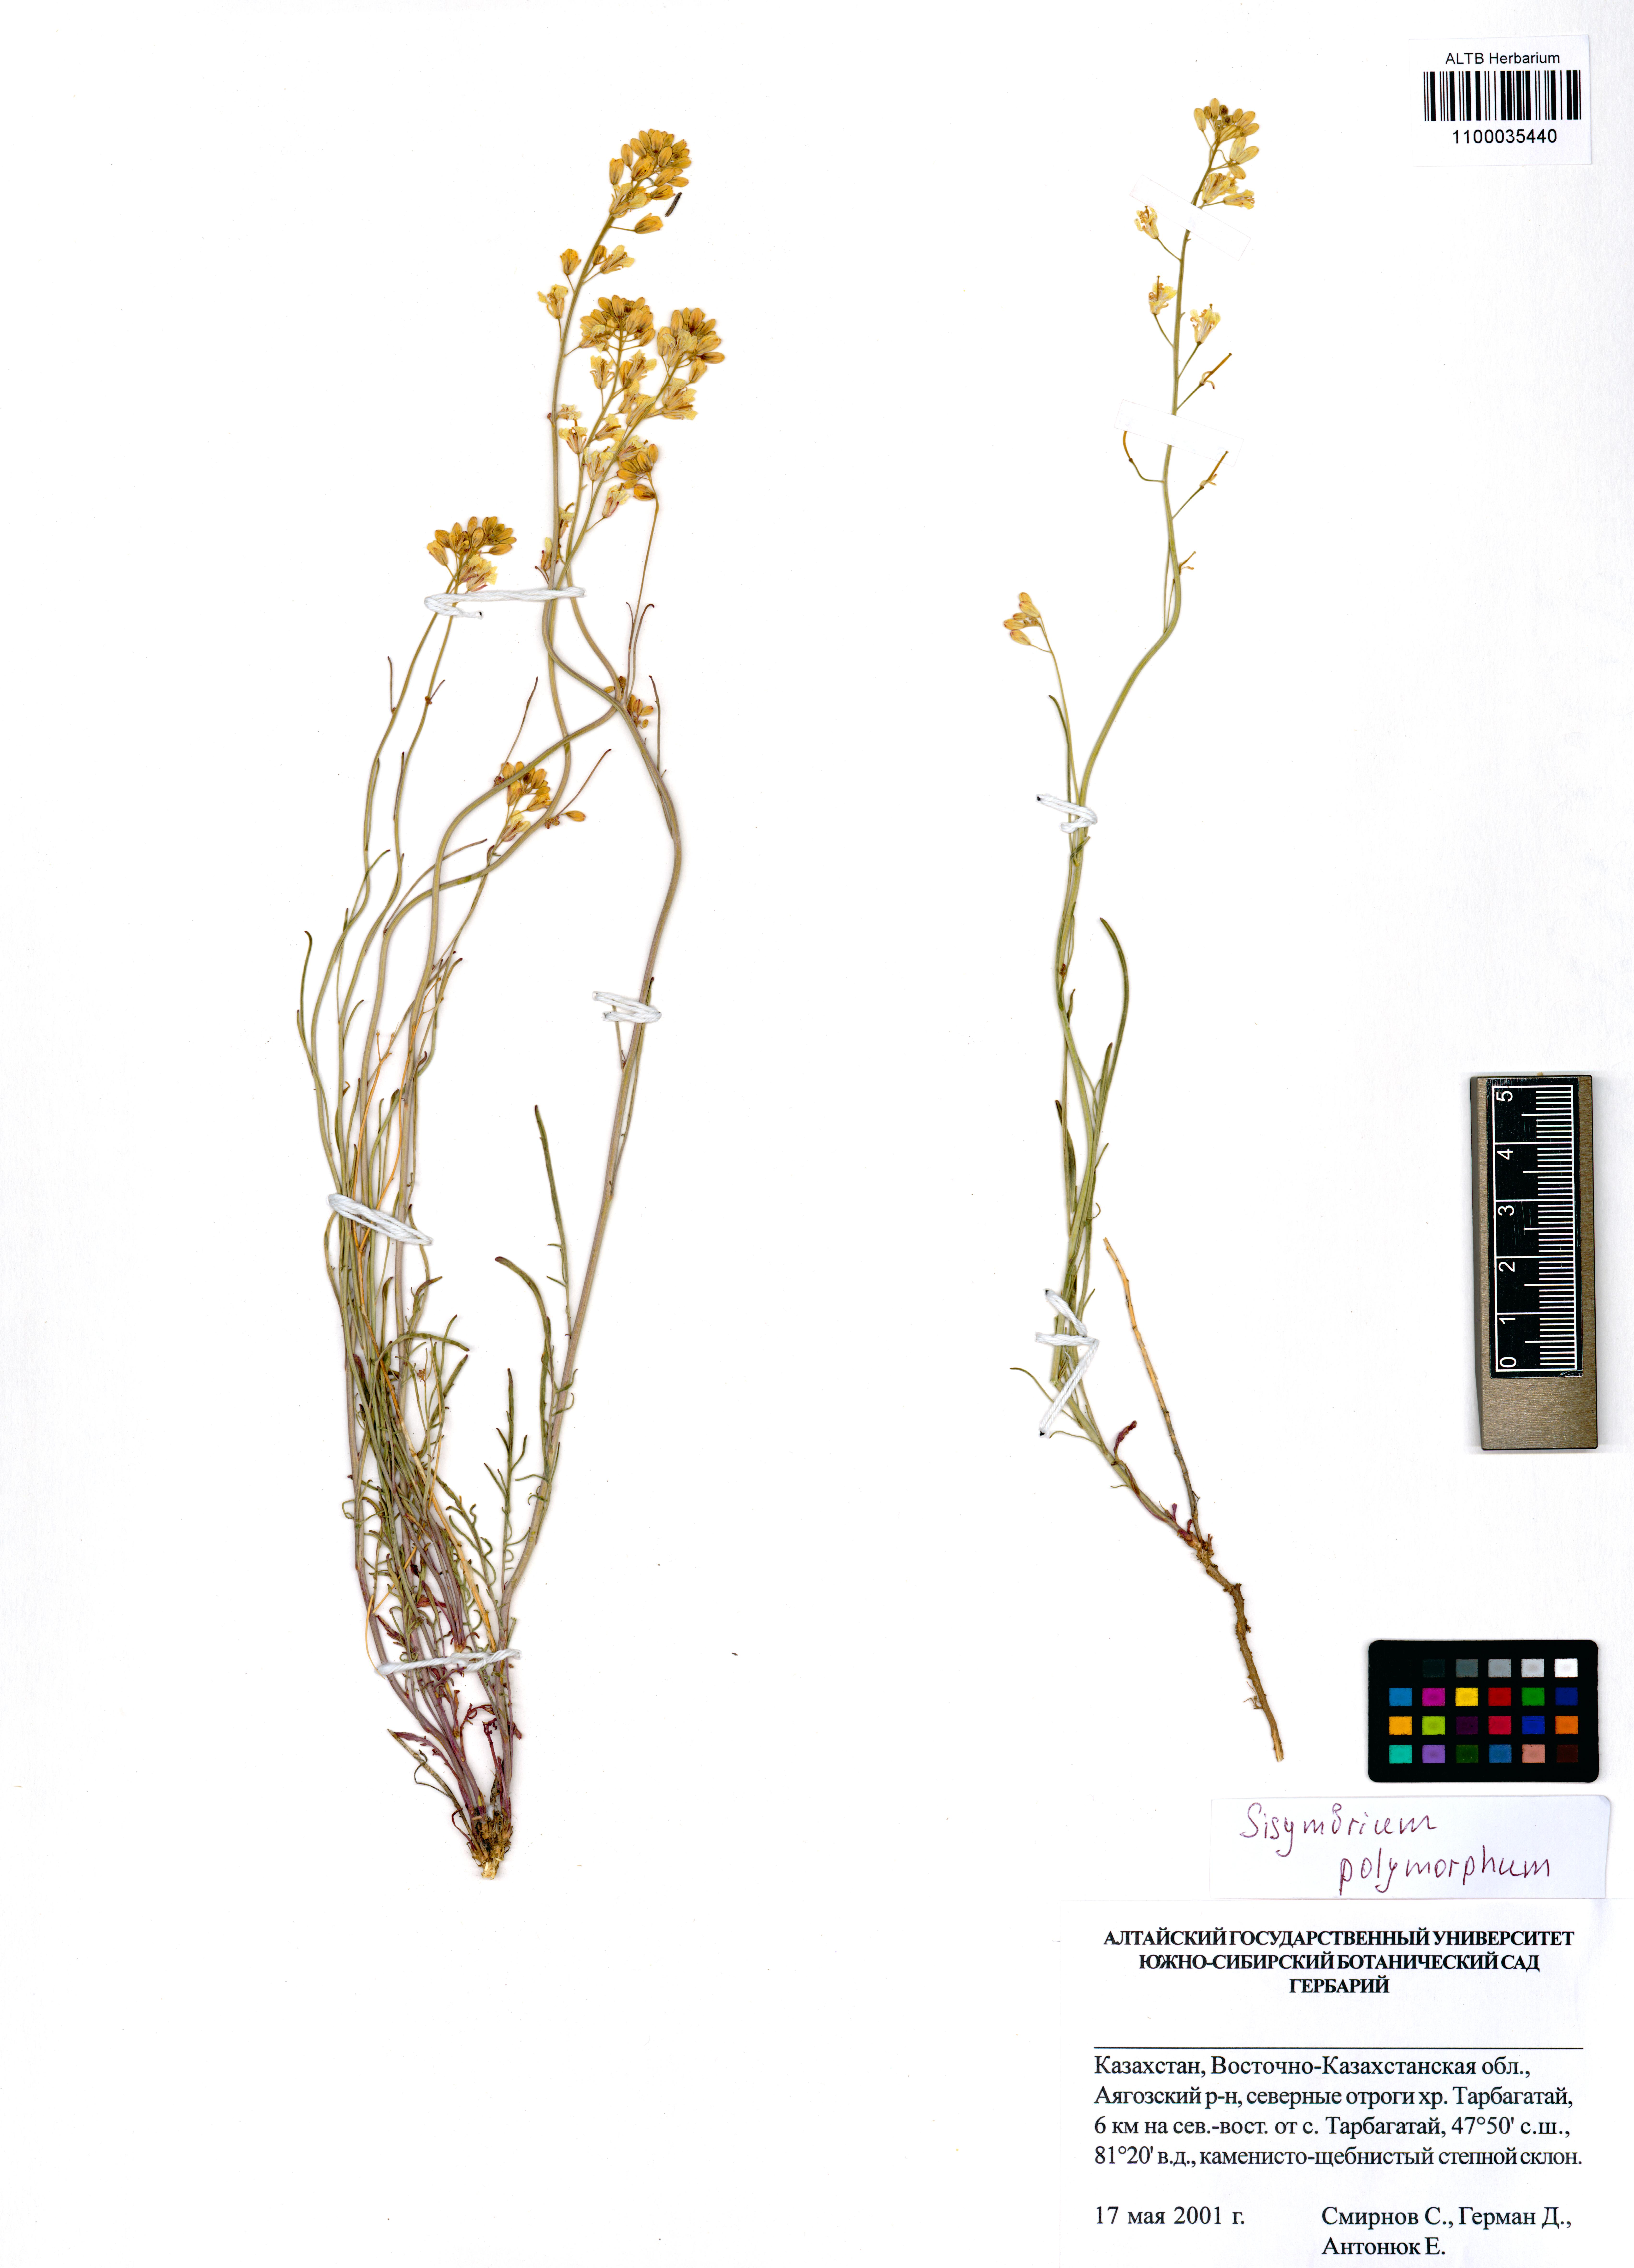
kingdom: Plantae
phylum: Tracheophyta
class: Magnoliopsida
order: Brassicales
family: Brassicaceae
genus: Sisymbrium
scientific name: Sisymbrium polymorphum
